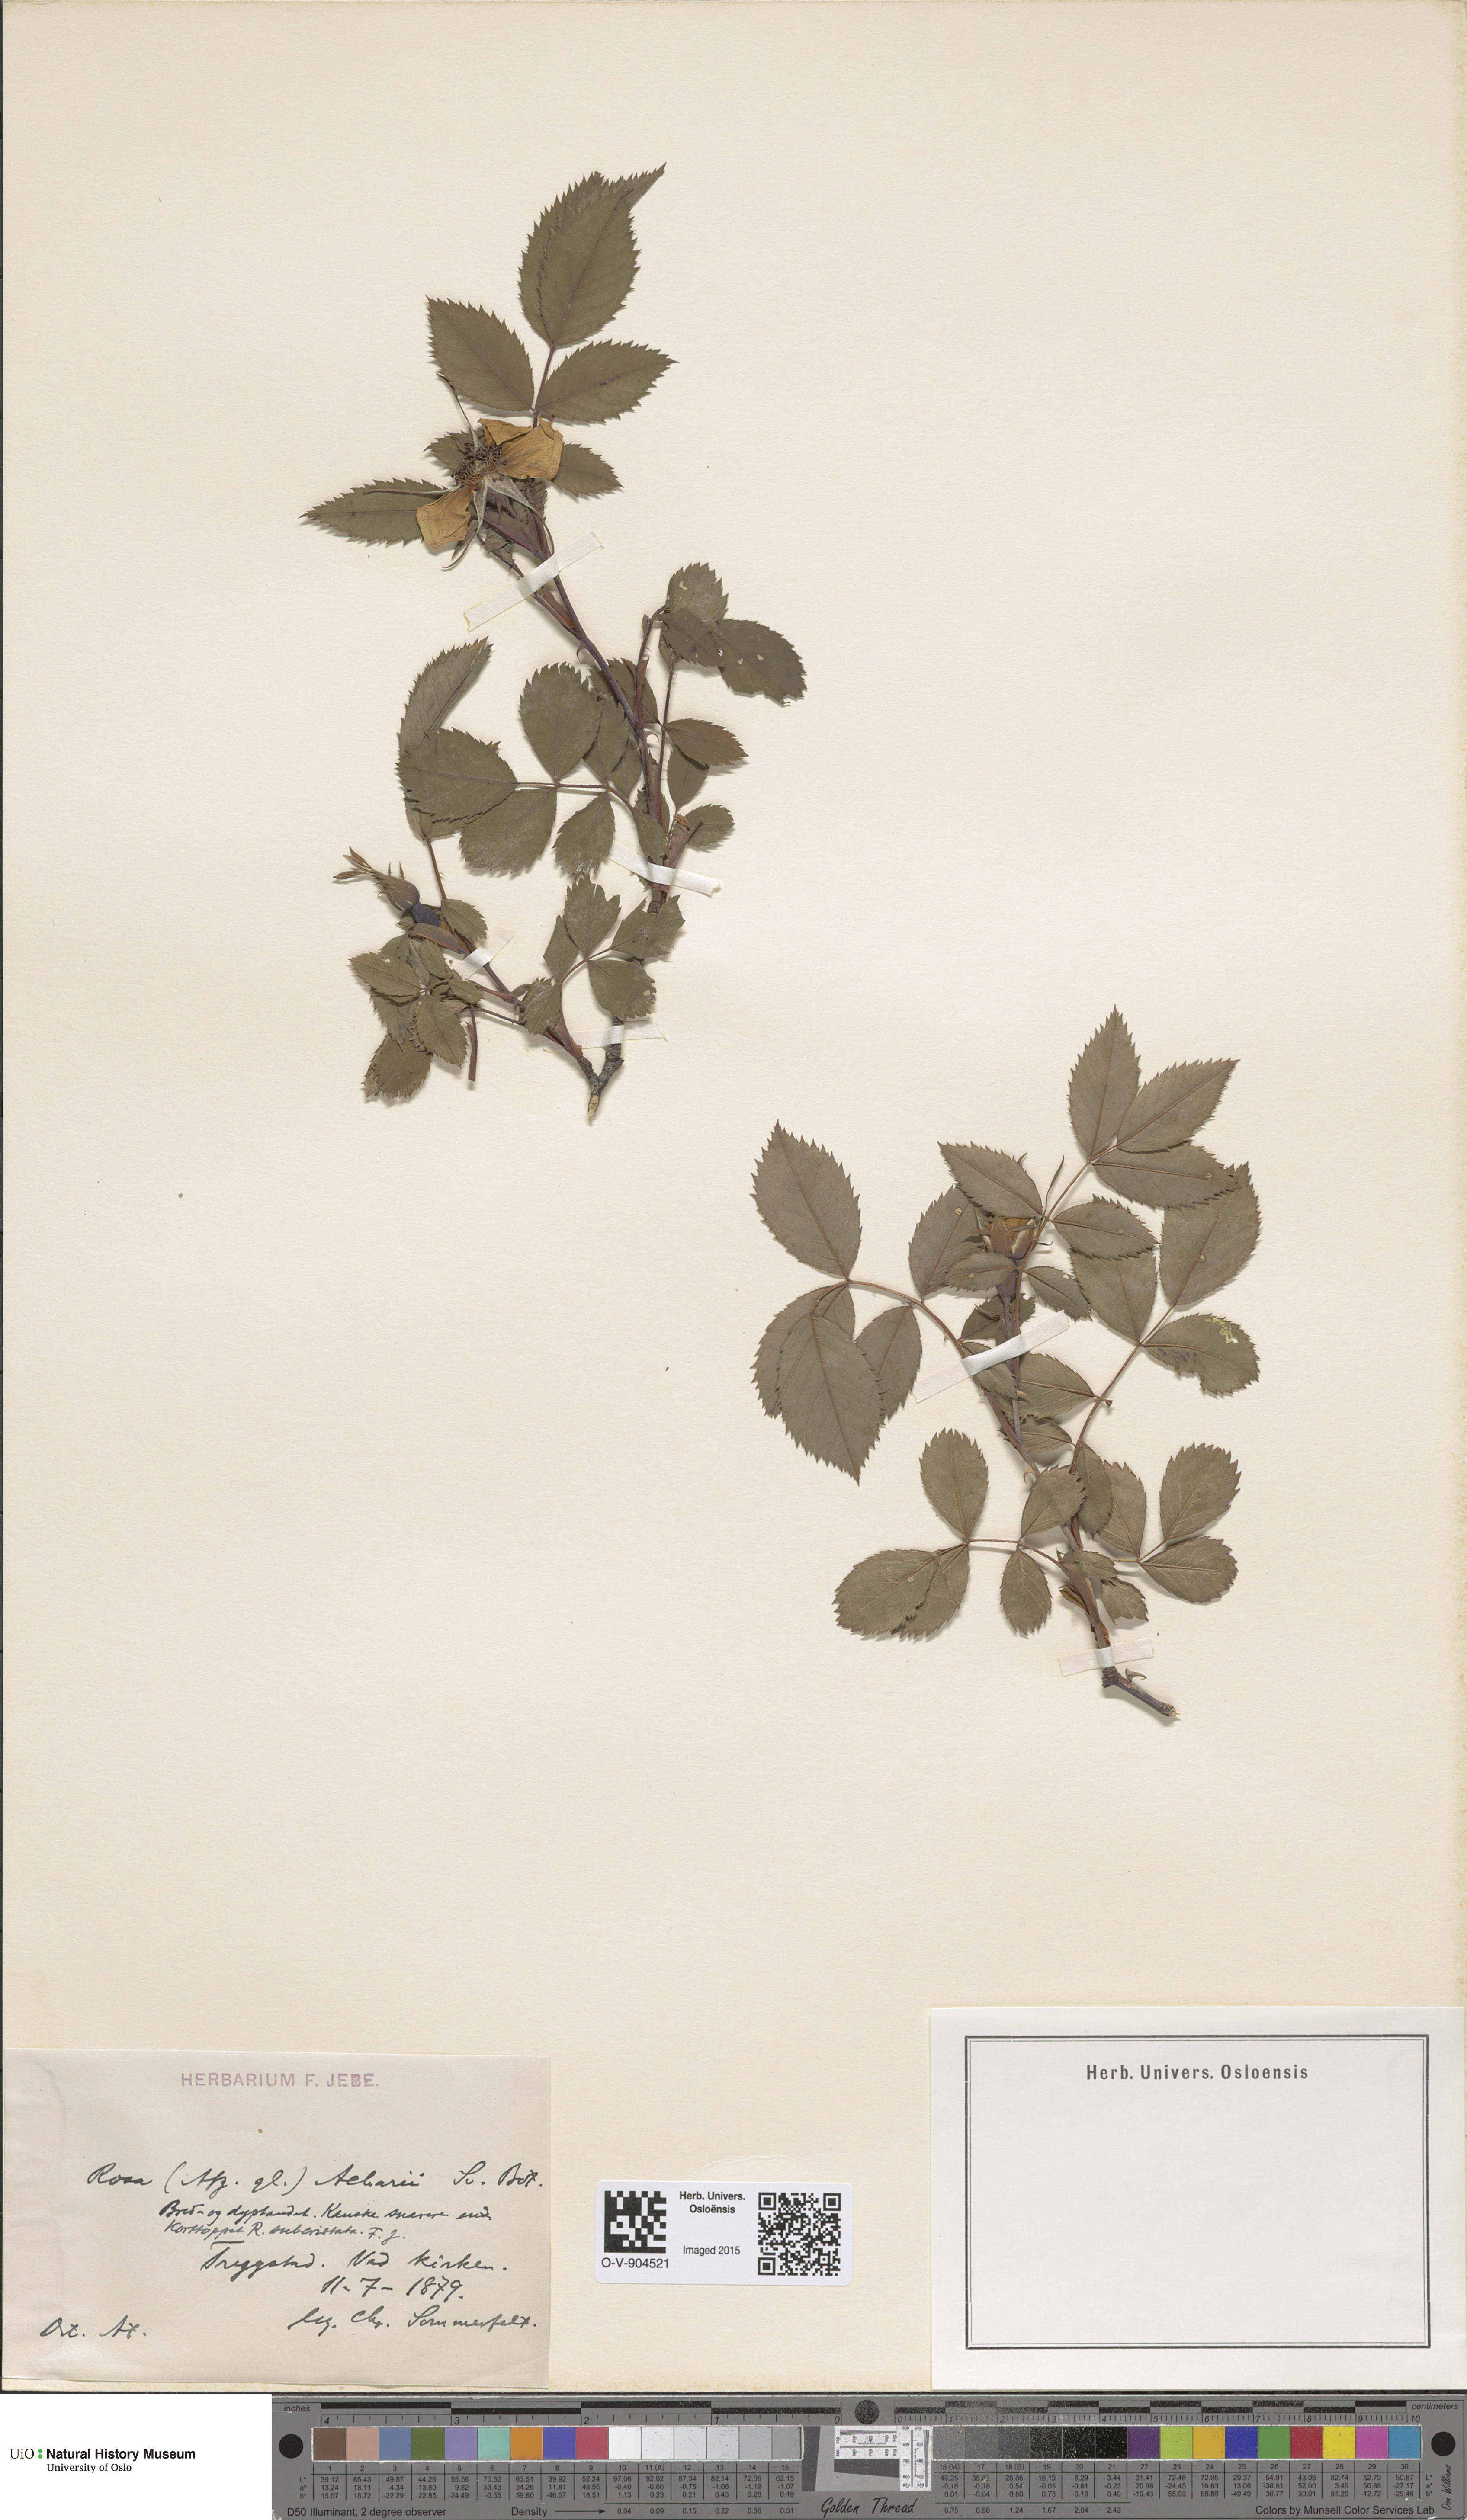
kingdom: Plantae
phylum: Tracheophyta
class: Magnoliopsida
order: Rosales
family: Rosaceae
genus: Rosa
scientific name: Rosa dumalis
